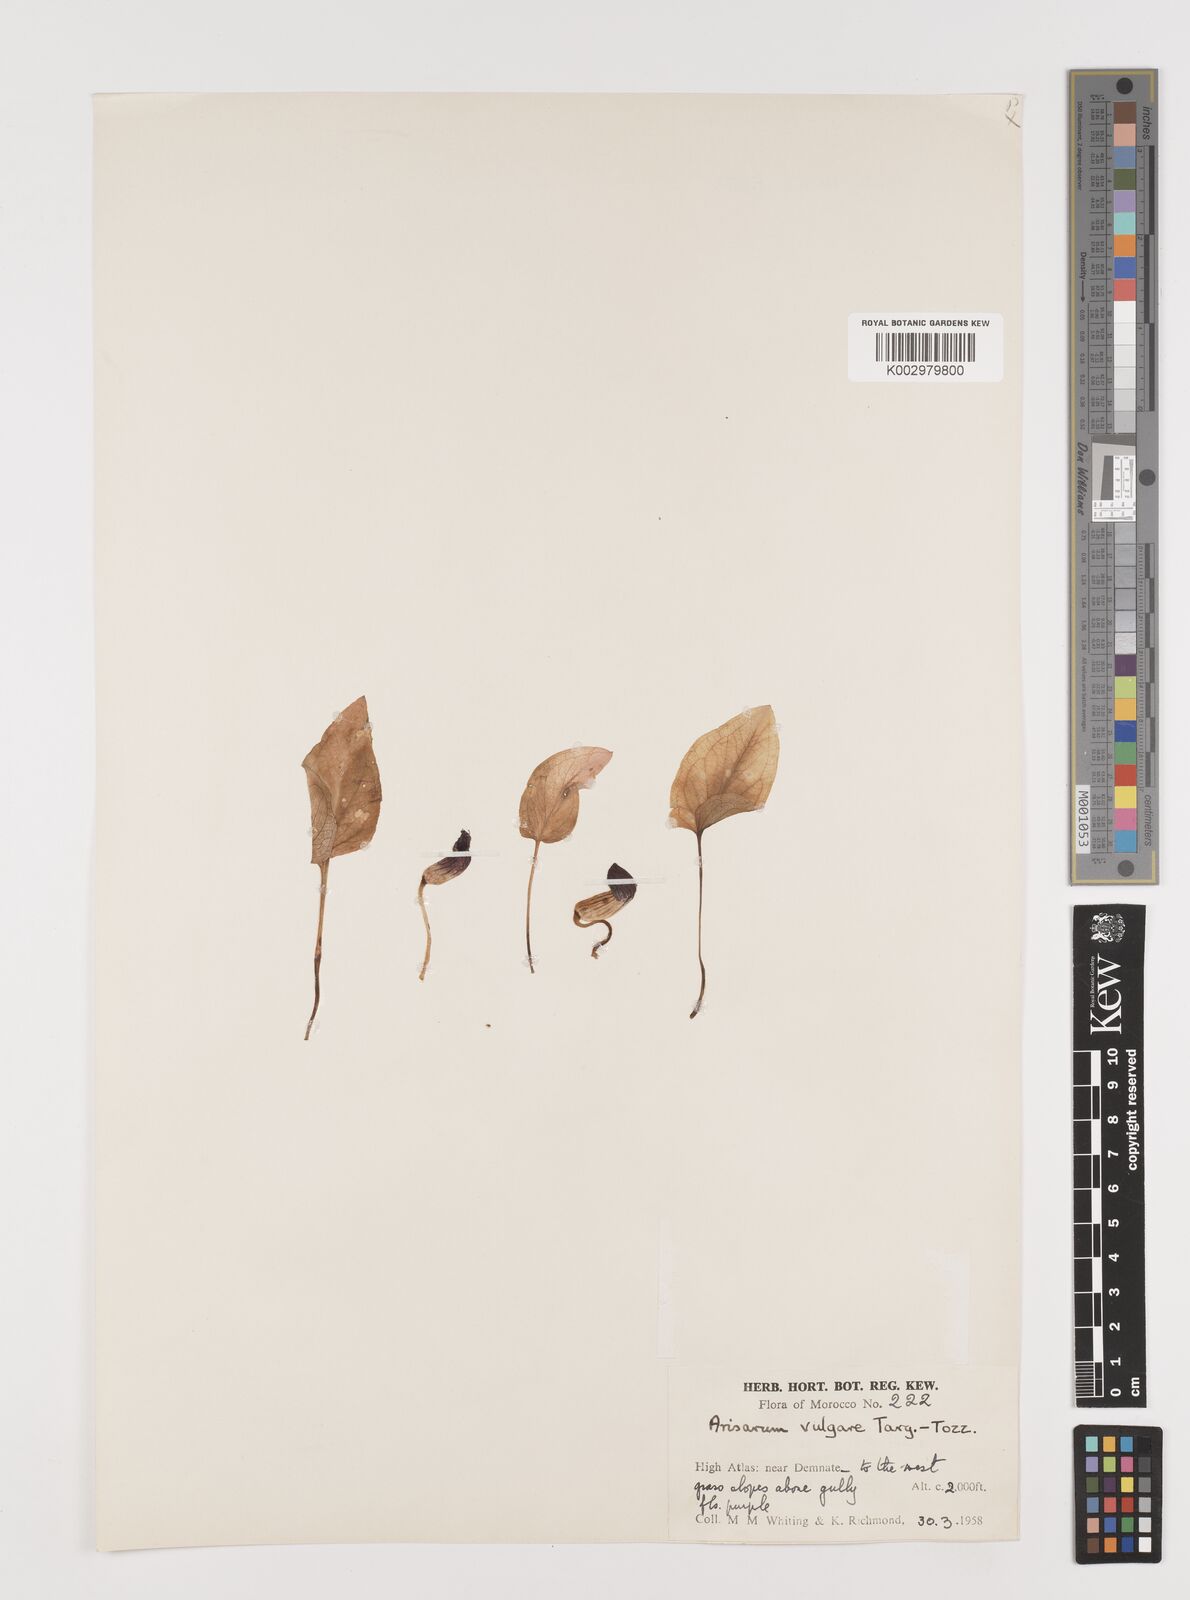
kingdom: Plantae
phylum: Tracheophyta
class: Liliopsida
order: Alismatales
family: Araceae
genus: Arisarum
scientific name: Arisarum simorrhinum
